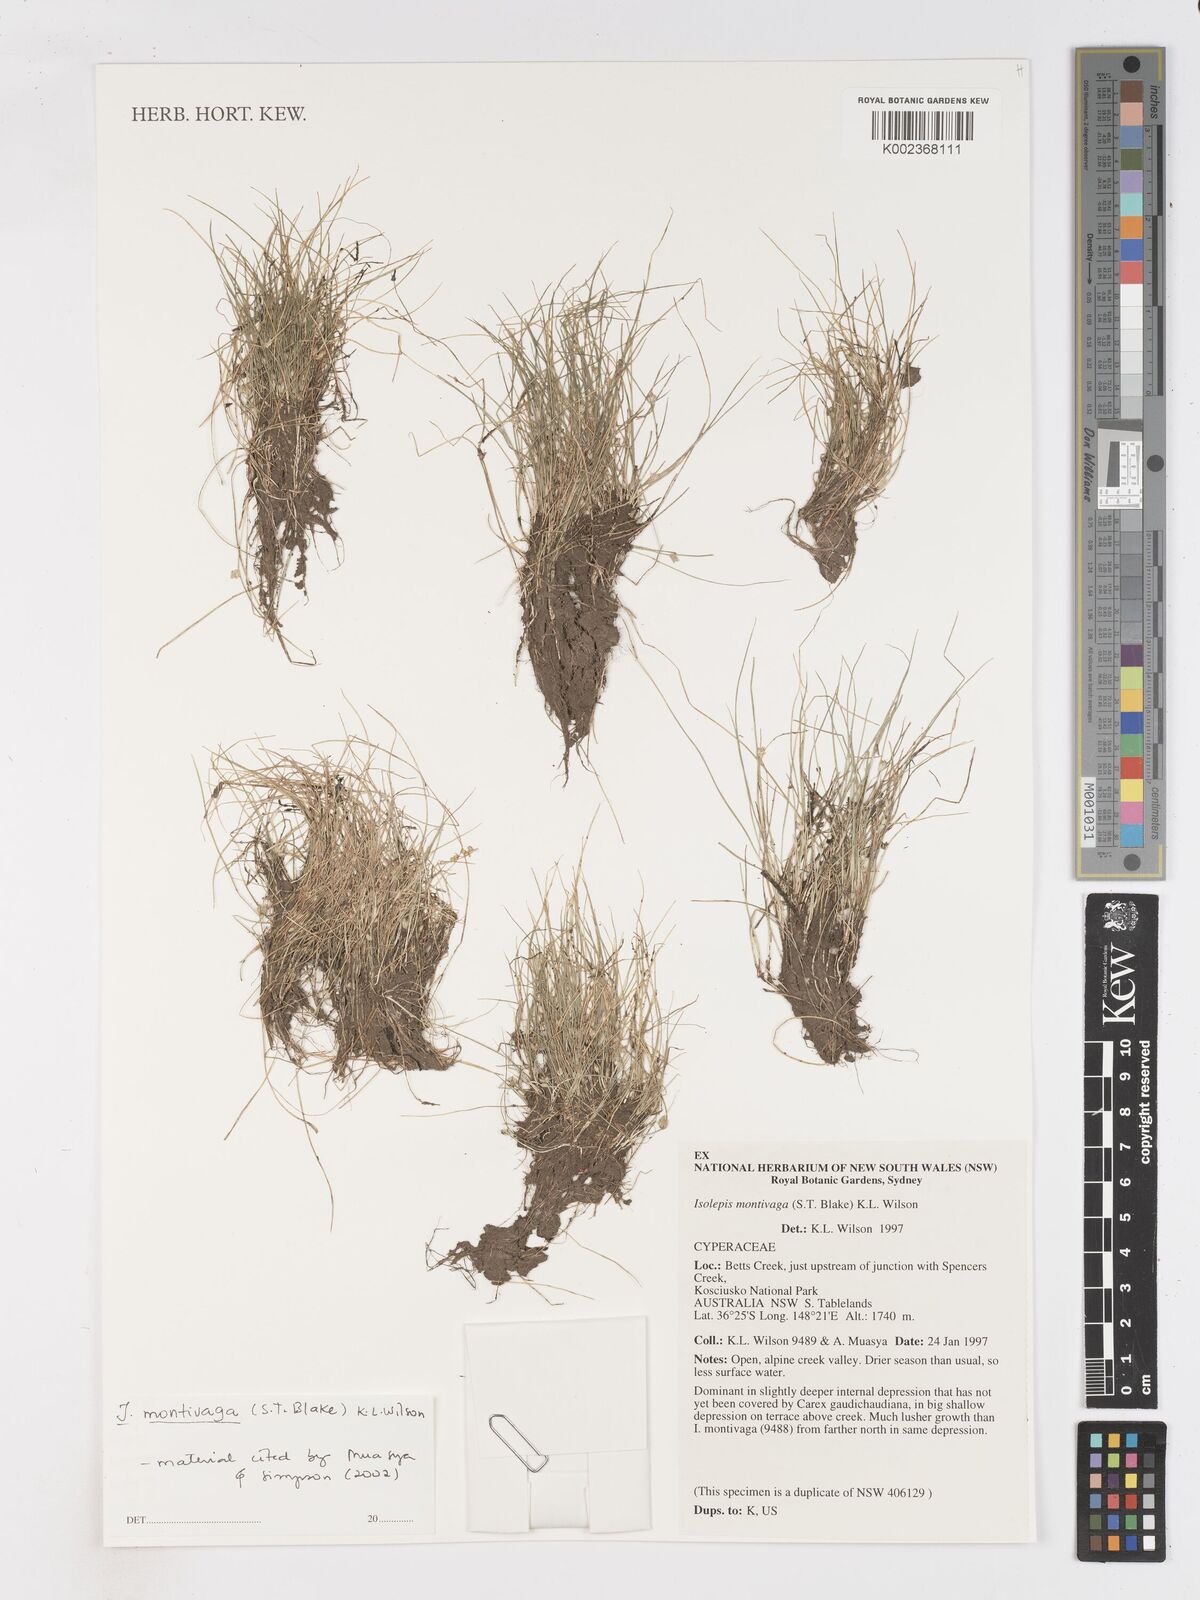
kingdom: Plantae
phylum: Tracheophyta
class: Liliopsida
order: Poales
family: Cyperaceae
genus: Isolepis
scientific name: Isolepis montivaga
